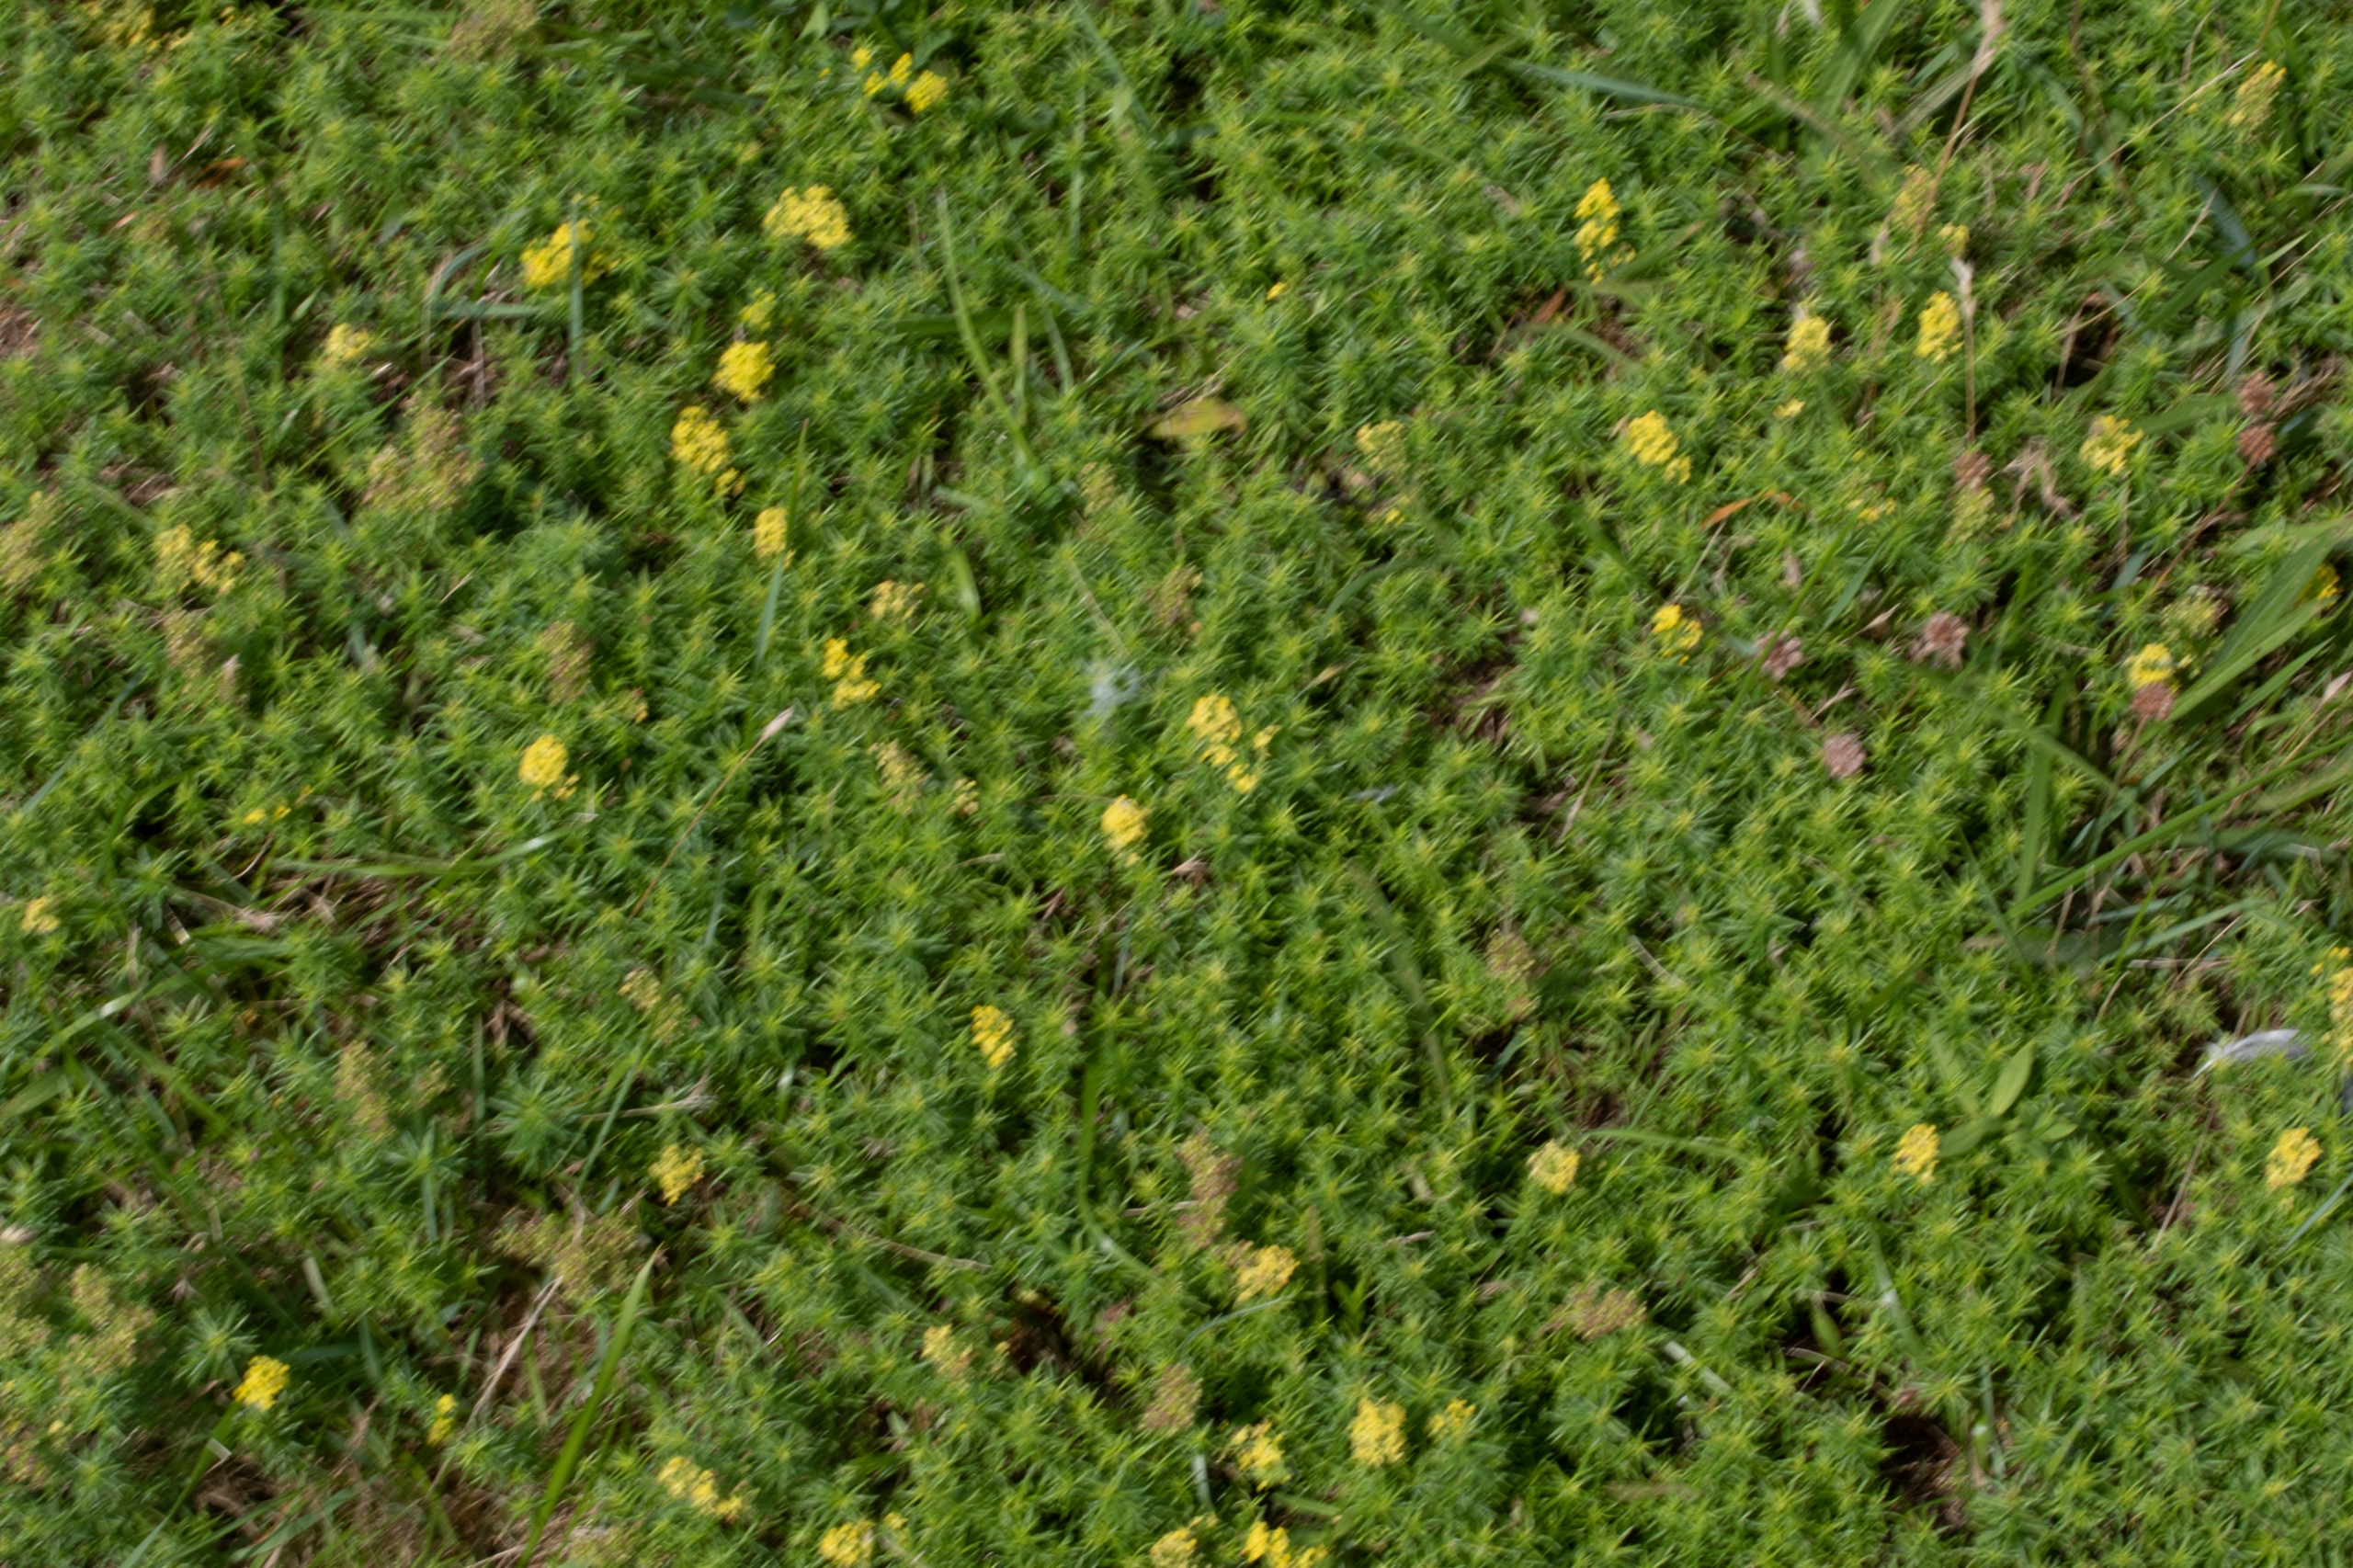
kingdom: Plantae
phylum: Tracheophyta
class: Magnoliopsida
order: Gentianales
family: Rubiaceae
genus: Galium
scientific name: Galium verum
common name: Gul snerre
